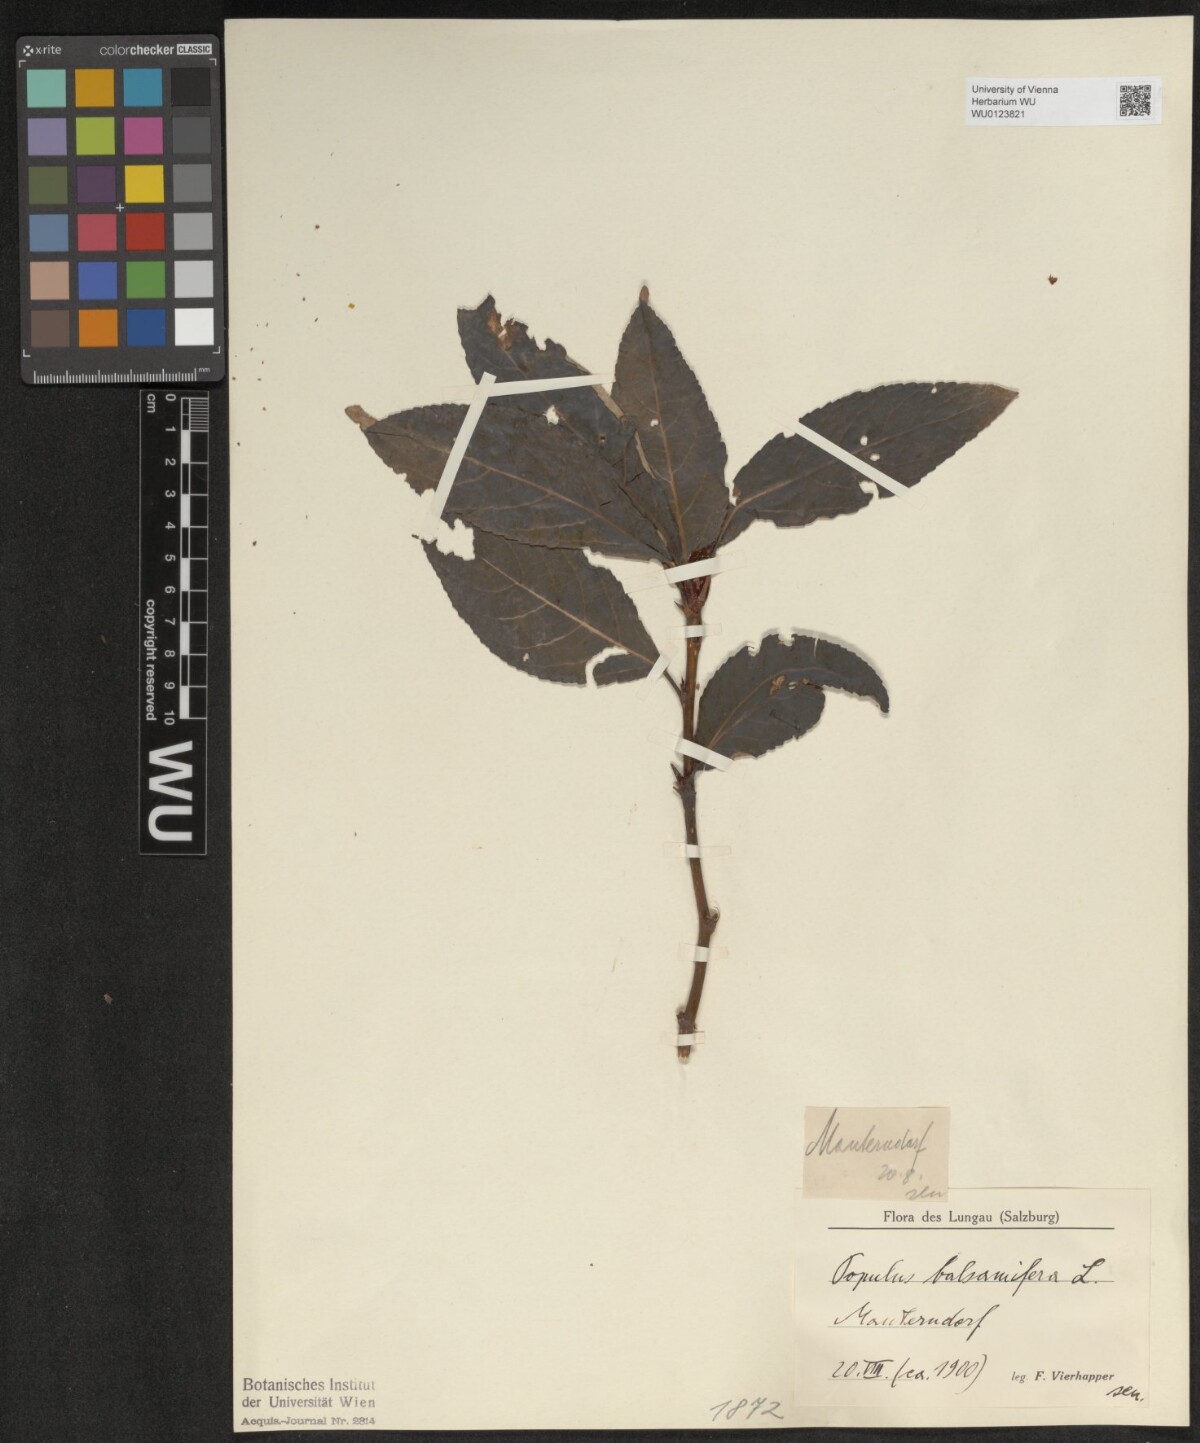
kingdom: Plantae
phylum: Tracheophyta
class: Magnoliopsida
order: Malpighiales
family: Salicaceae
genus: Populus
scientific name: Populus balsamifera
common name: Balsam poplar
